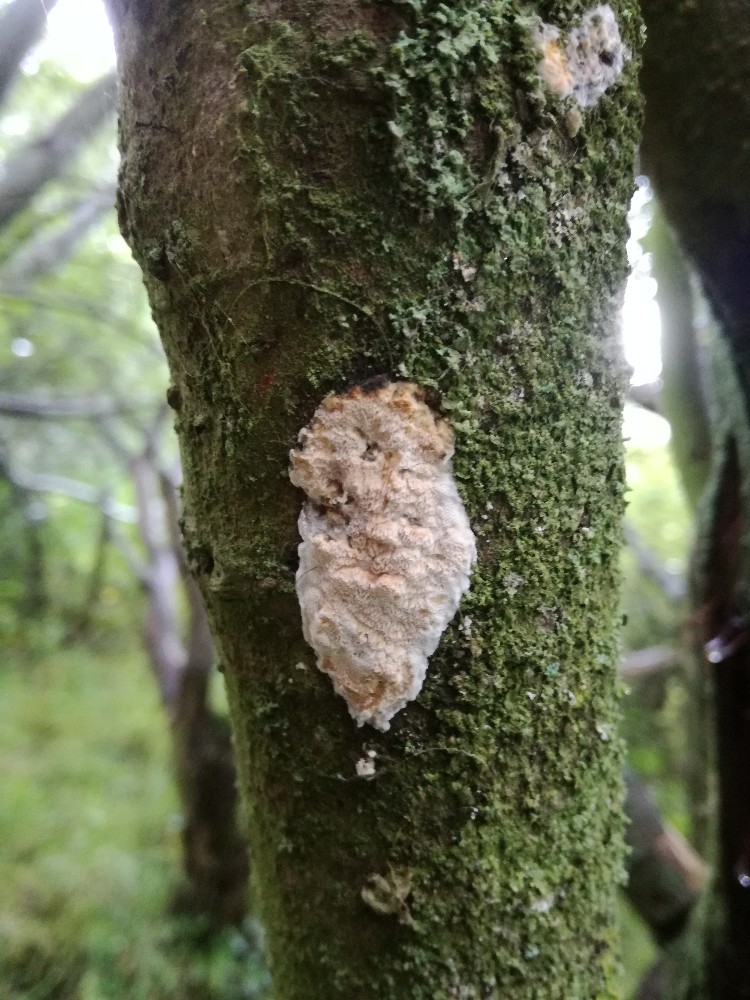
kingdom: Fungi
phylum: Basidiomycota
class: Agaricomycetes
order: Polyporales
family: Irpicaceae
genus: Resiniporus
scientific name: Resiniporus resinascens
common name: trist pastelporesvamp
